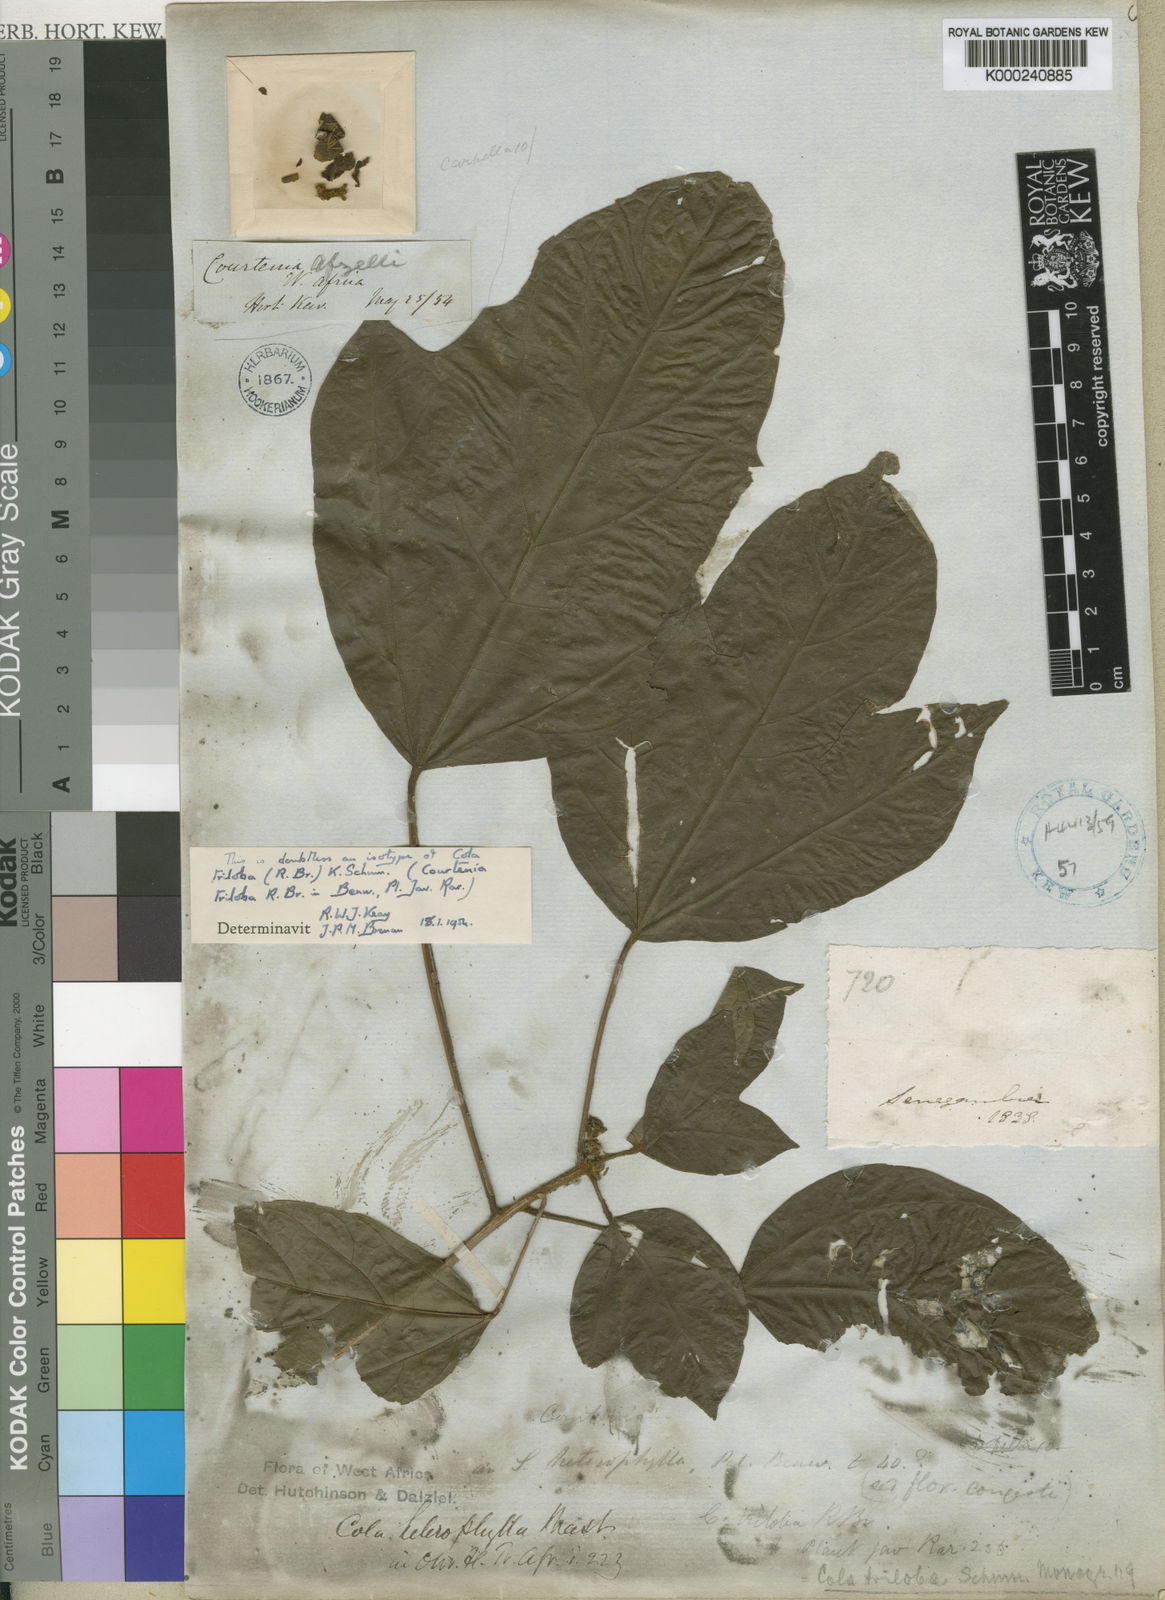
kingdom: Plantae
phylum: Tracheophyta
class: Magnoliopsida
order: Malvales
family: Malvaceae
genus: Cola
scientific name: Cola
